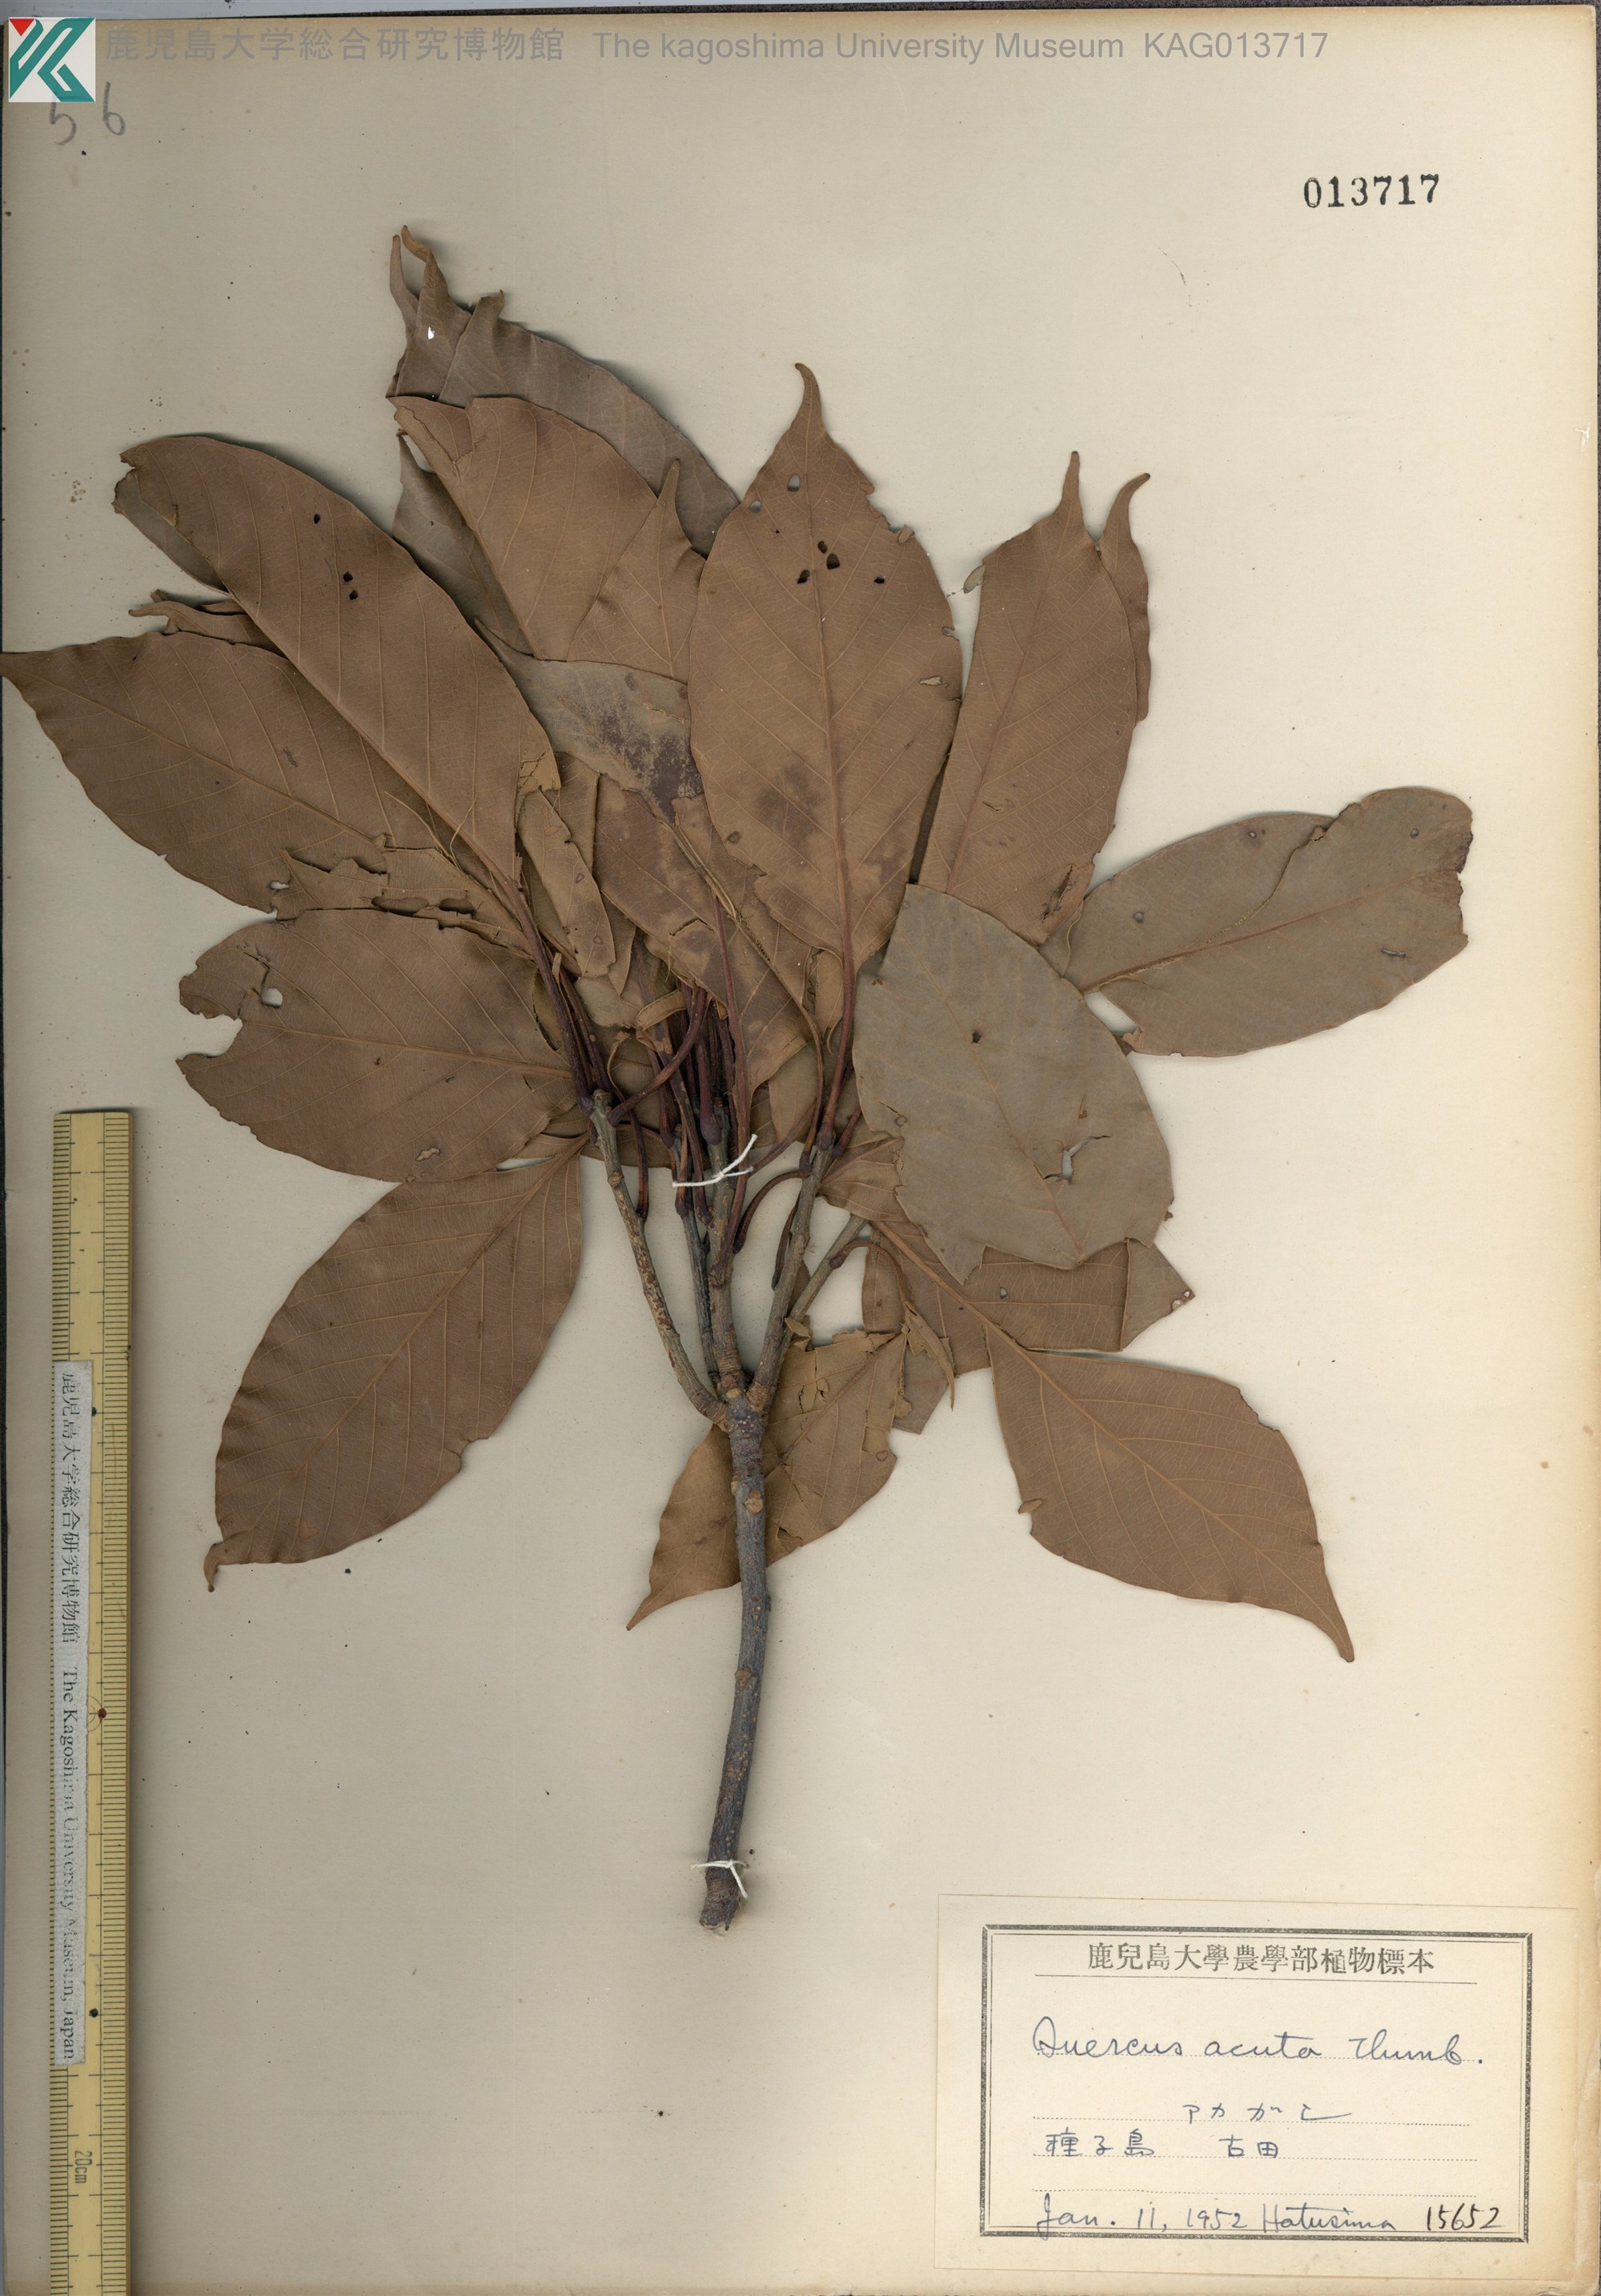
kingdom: Plantae
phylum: Tracheophyta
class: Magnoliopsida
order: Fagales
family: Fagaceae
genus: Quercus
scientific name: Quercus acuta
